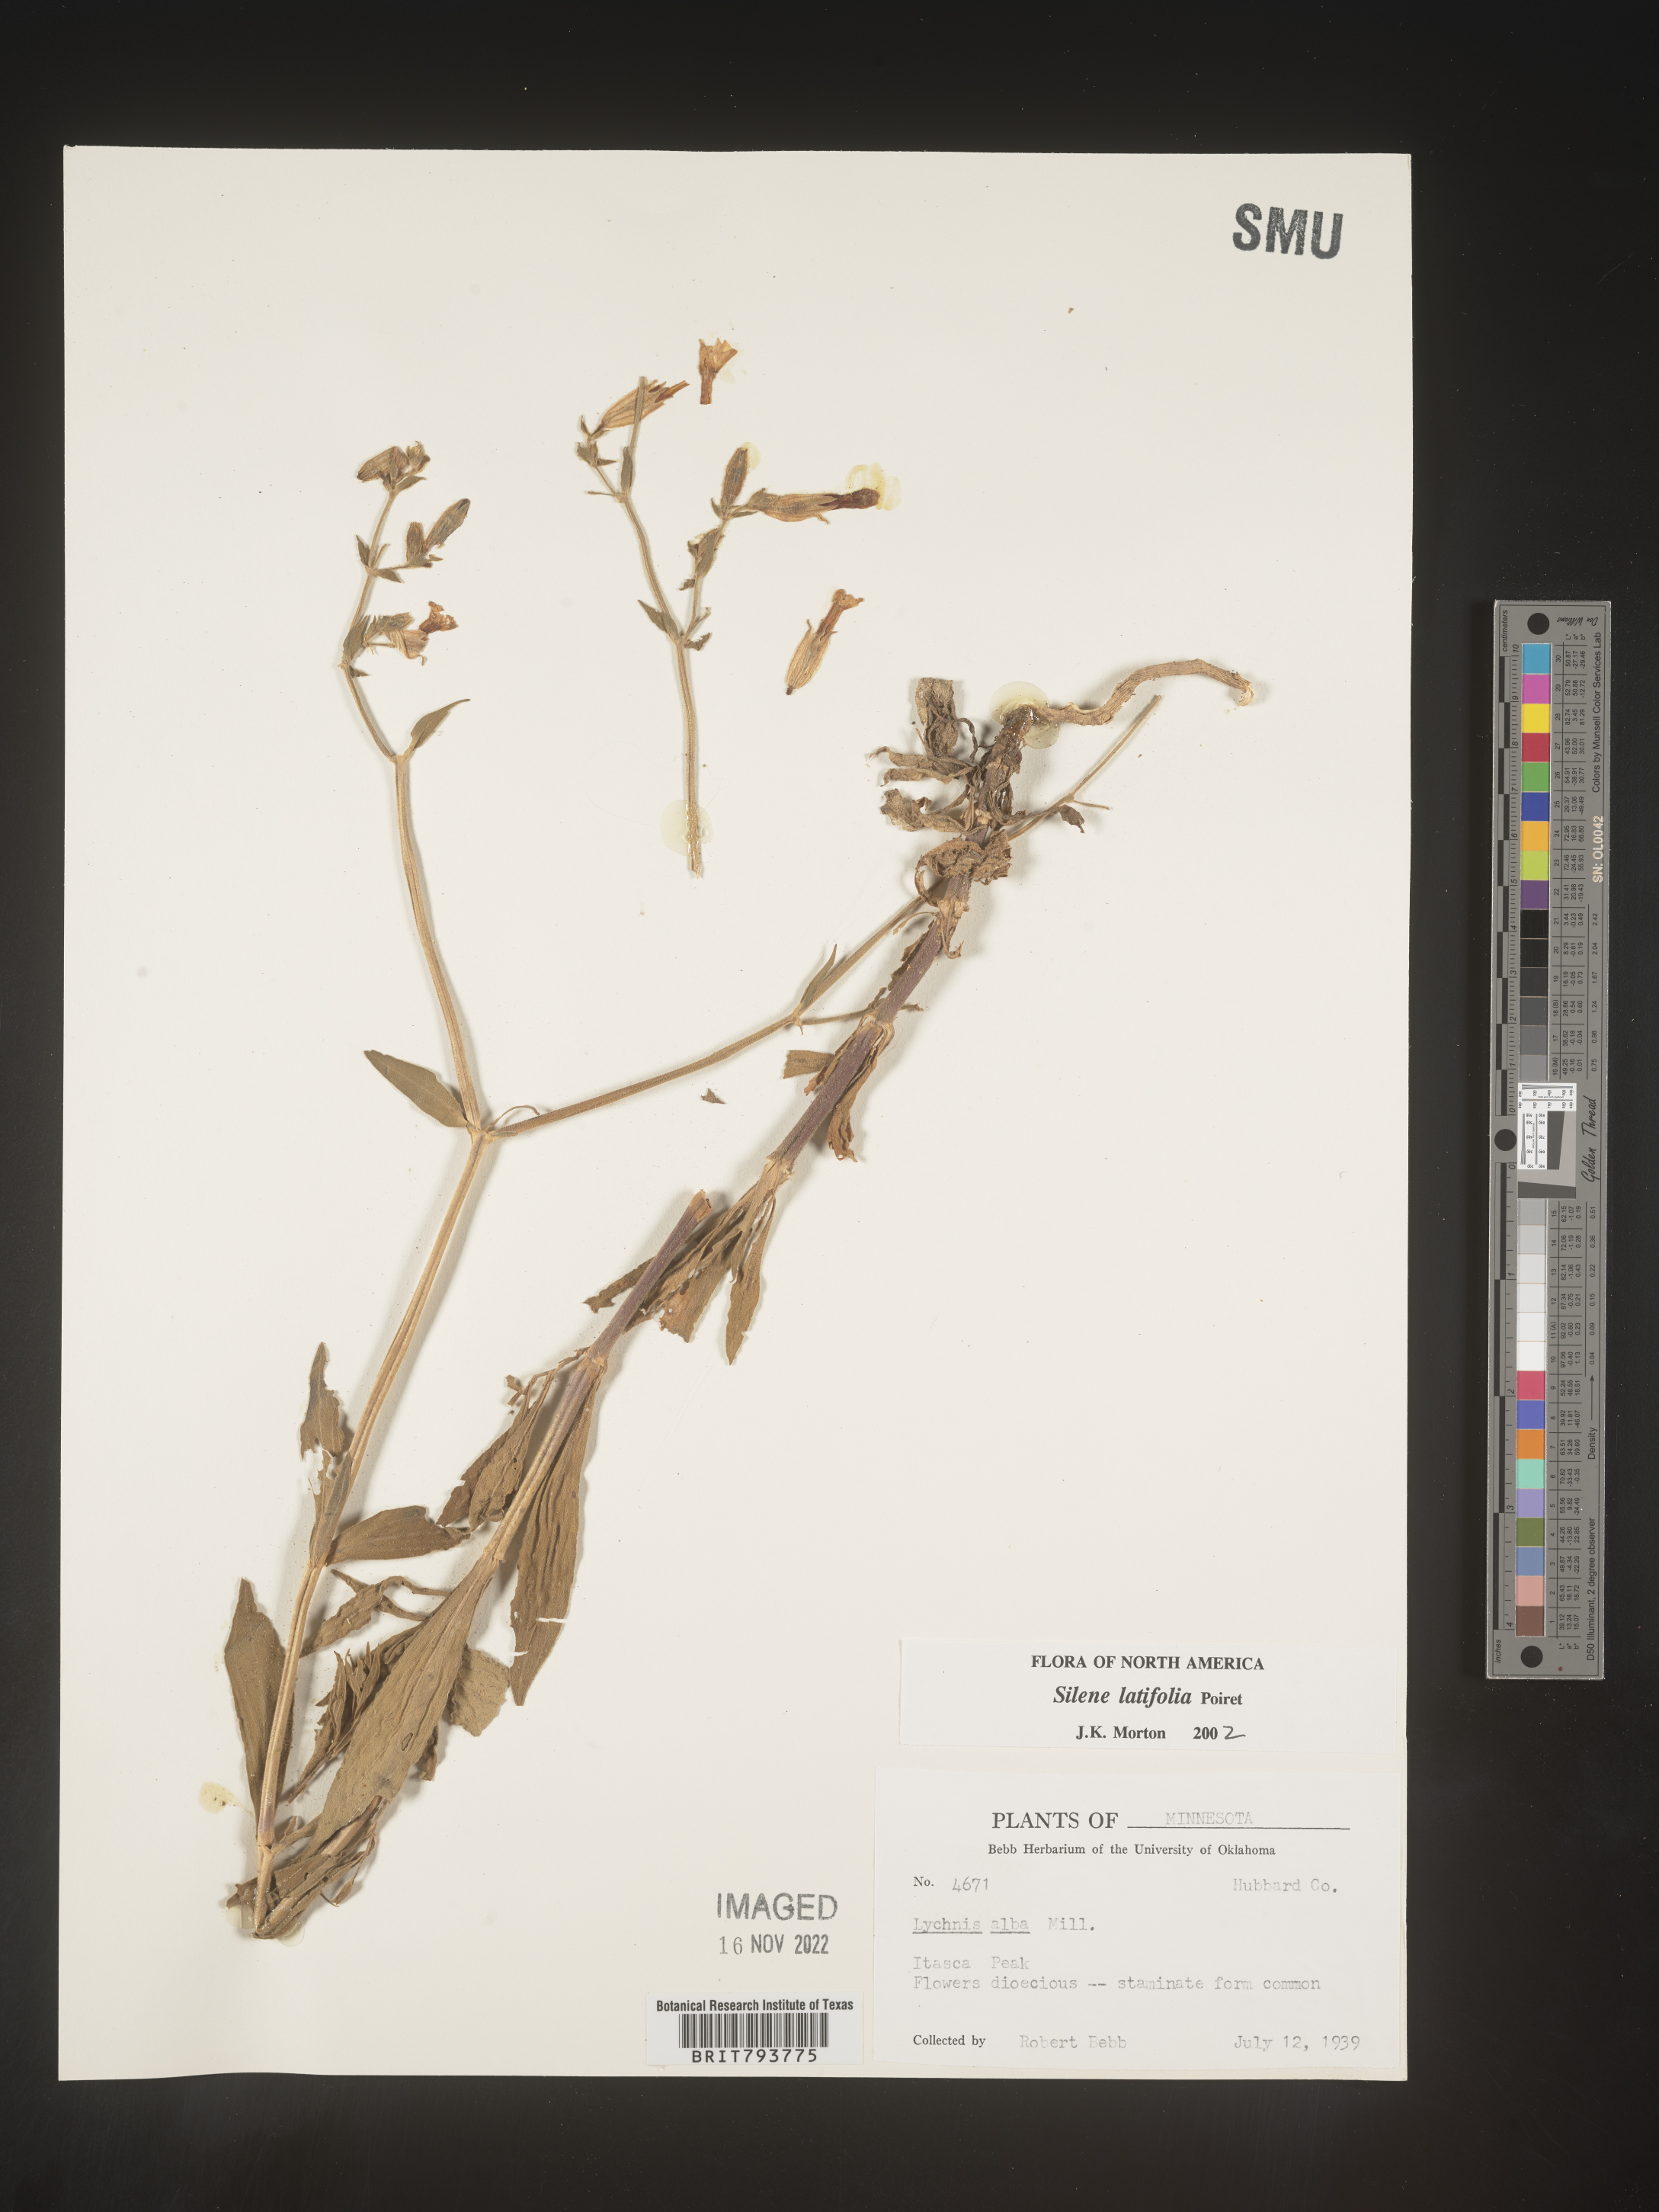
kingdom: Plantae
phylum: Tracheophyta
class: Magnoliopsida
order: Caryophyllales
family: Caryophyllaceae
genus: Silene
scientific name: Silene latifolia
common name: White campion
